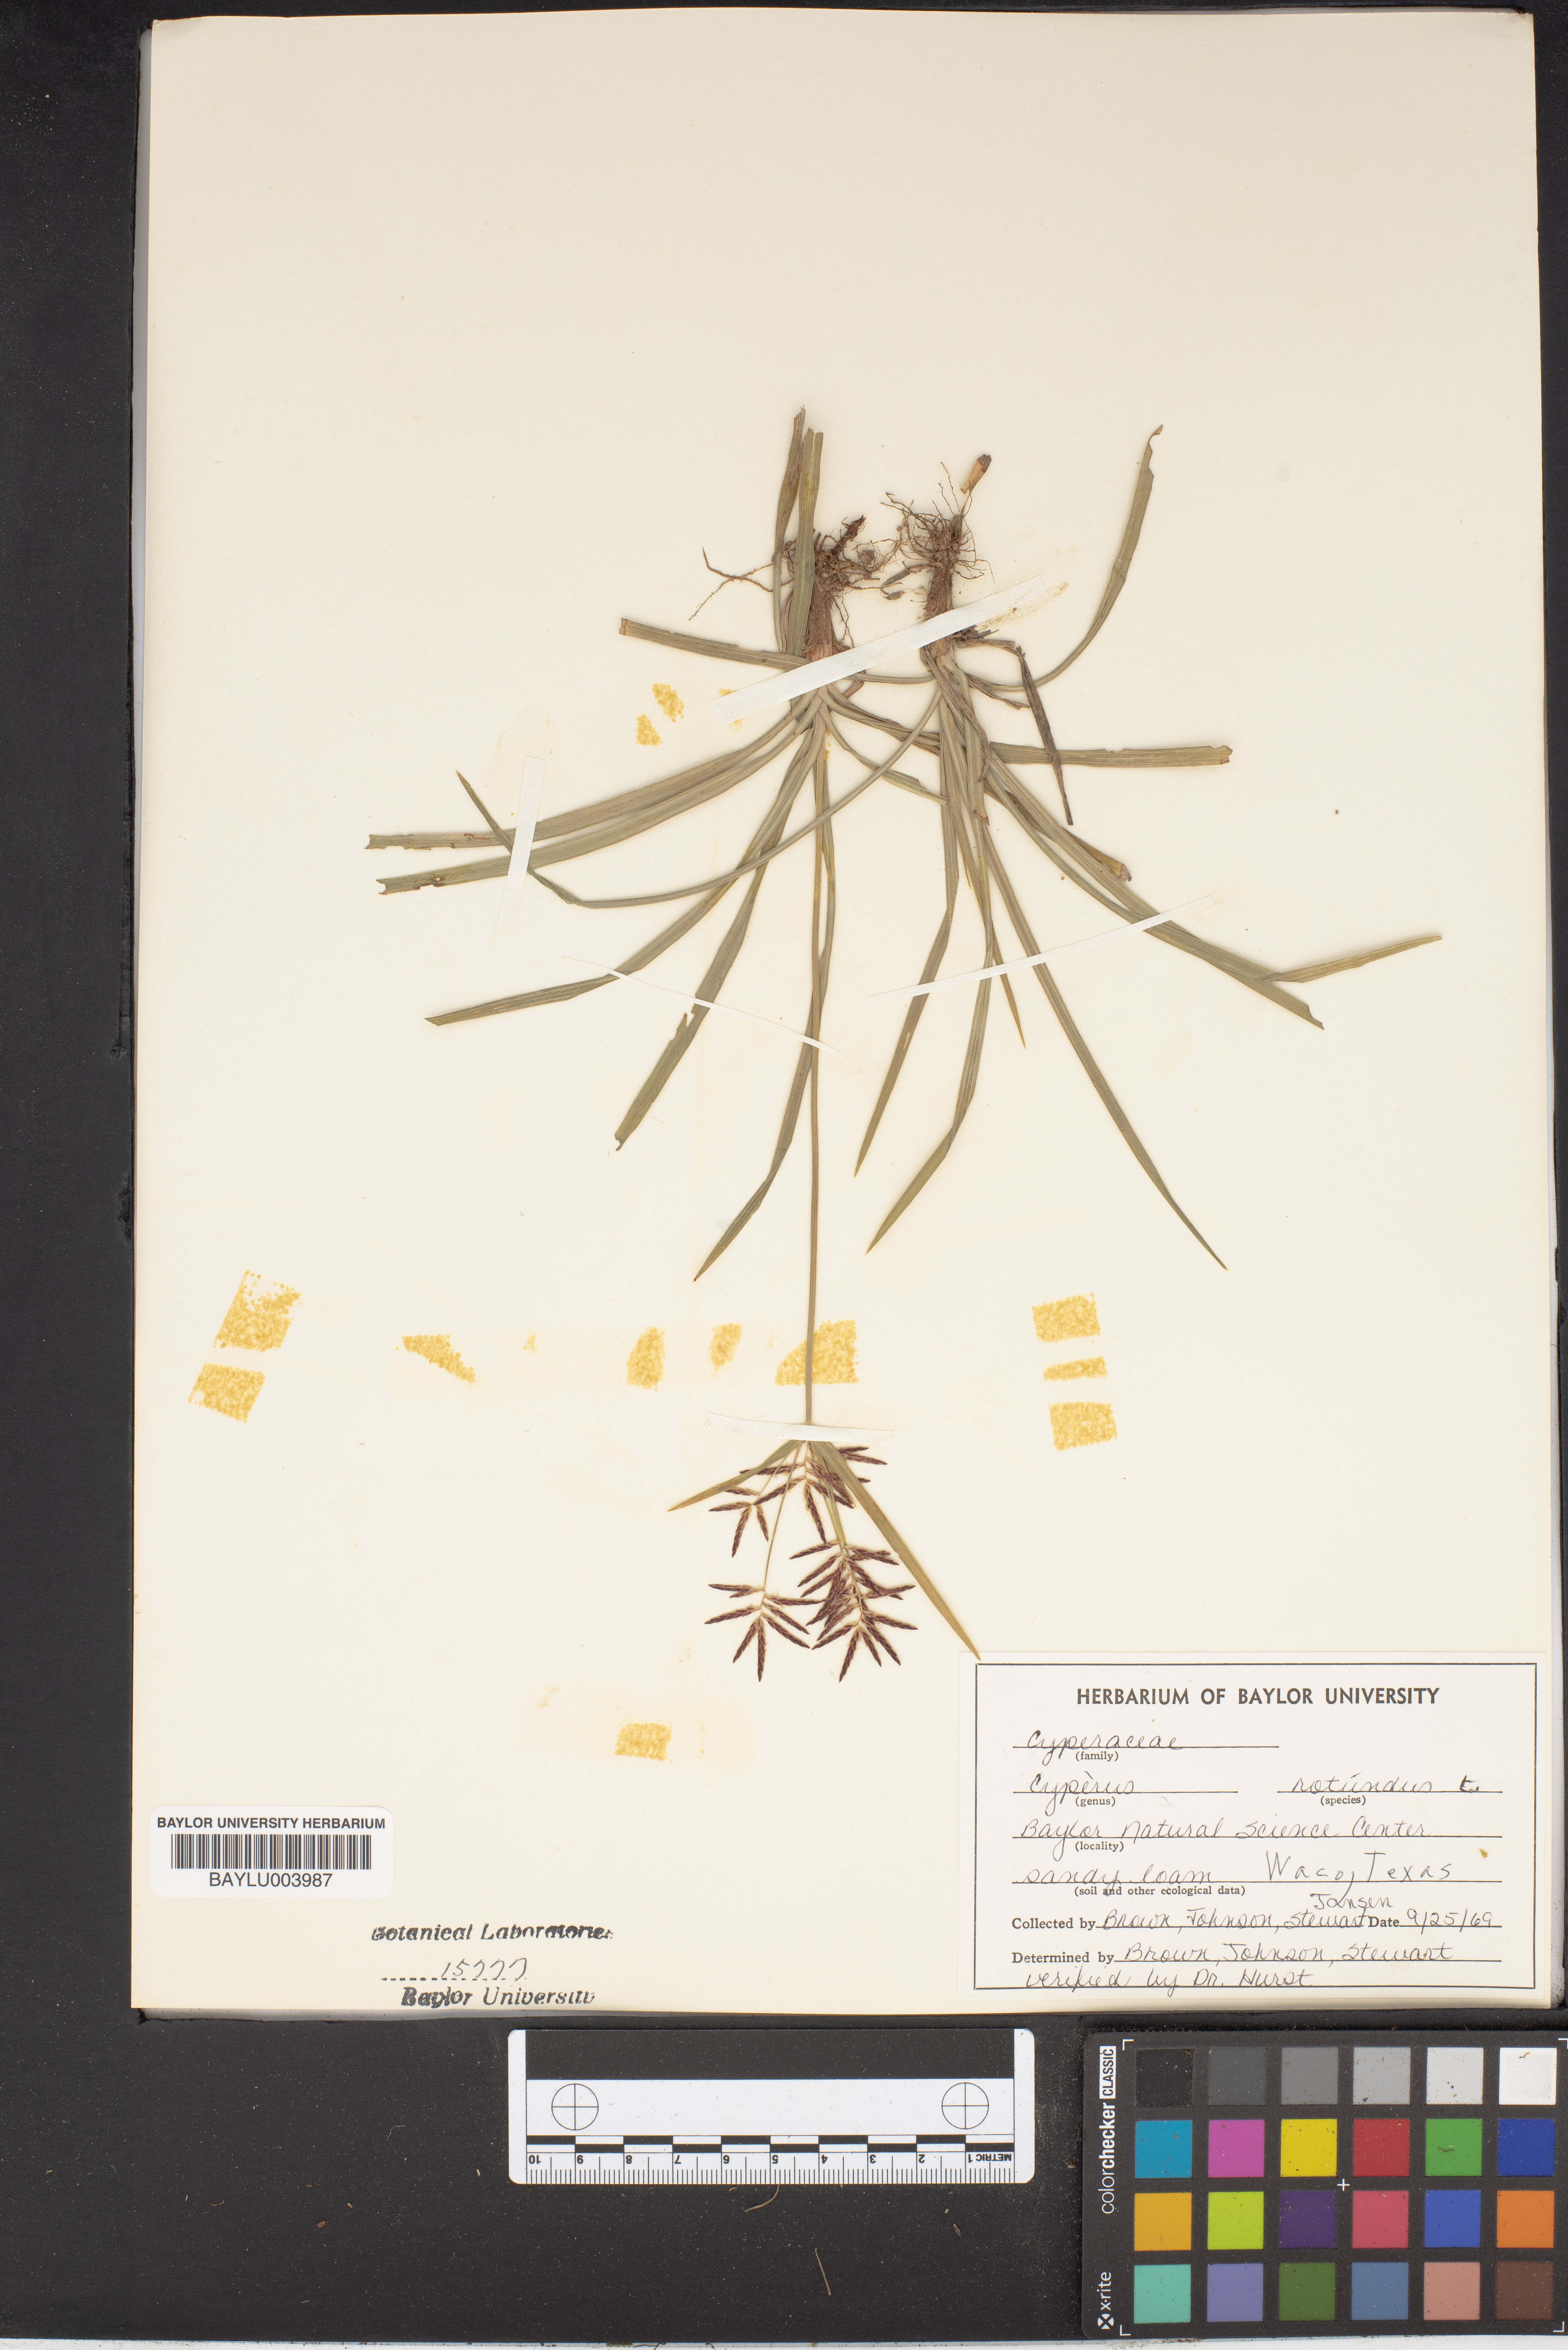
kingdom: Plantae
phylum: Tracheophyta
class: Liliopsida
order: Poales
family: Cyperaceae
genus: Cyperus
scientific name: Cyperus rotundus
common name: Nutgrass
